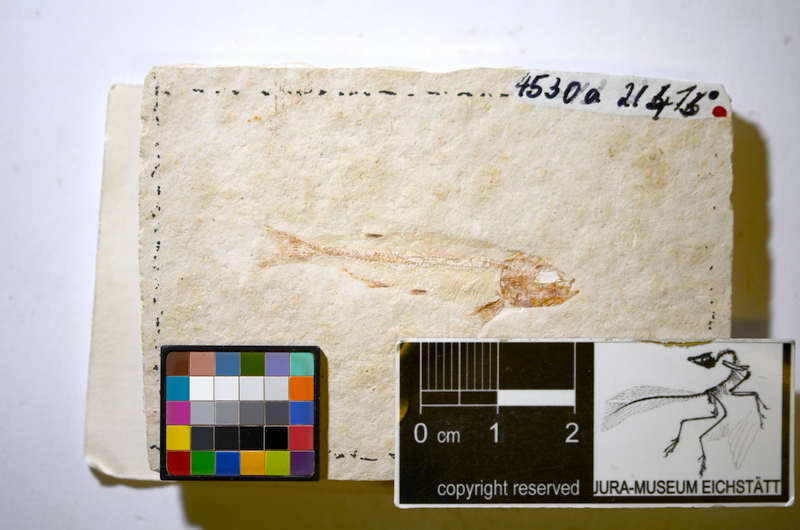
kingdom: Animalia
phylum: Chordata
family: Allothrissopidae
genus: Allothrissops
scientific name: Allothrissops mesogaster
